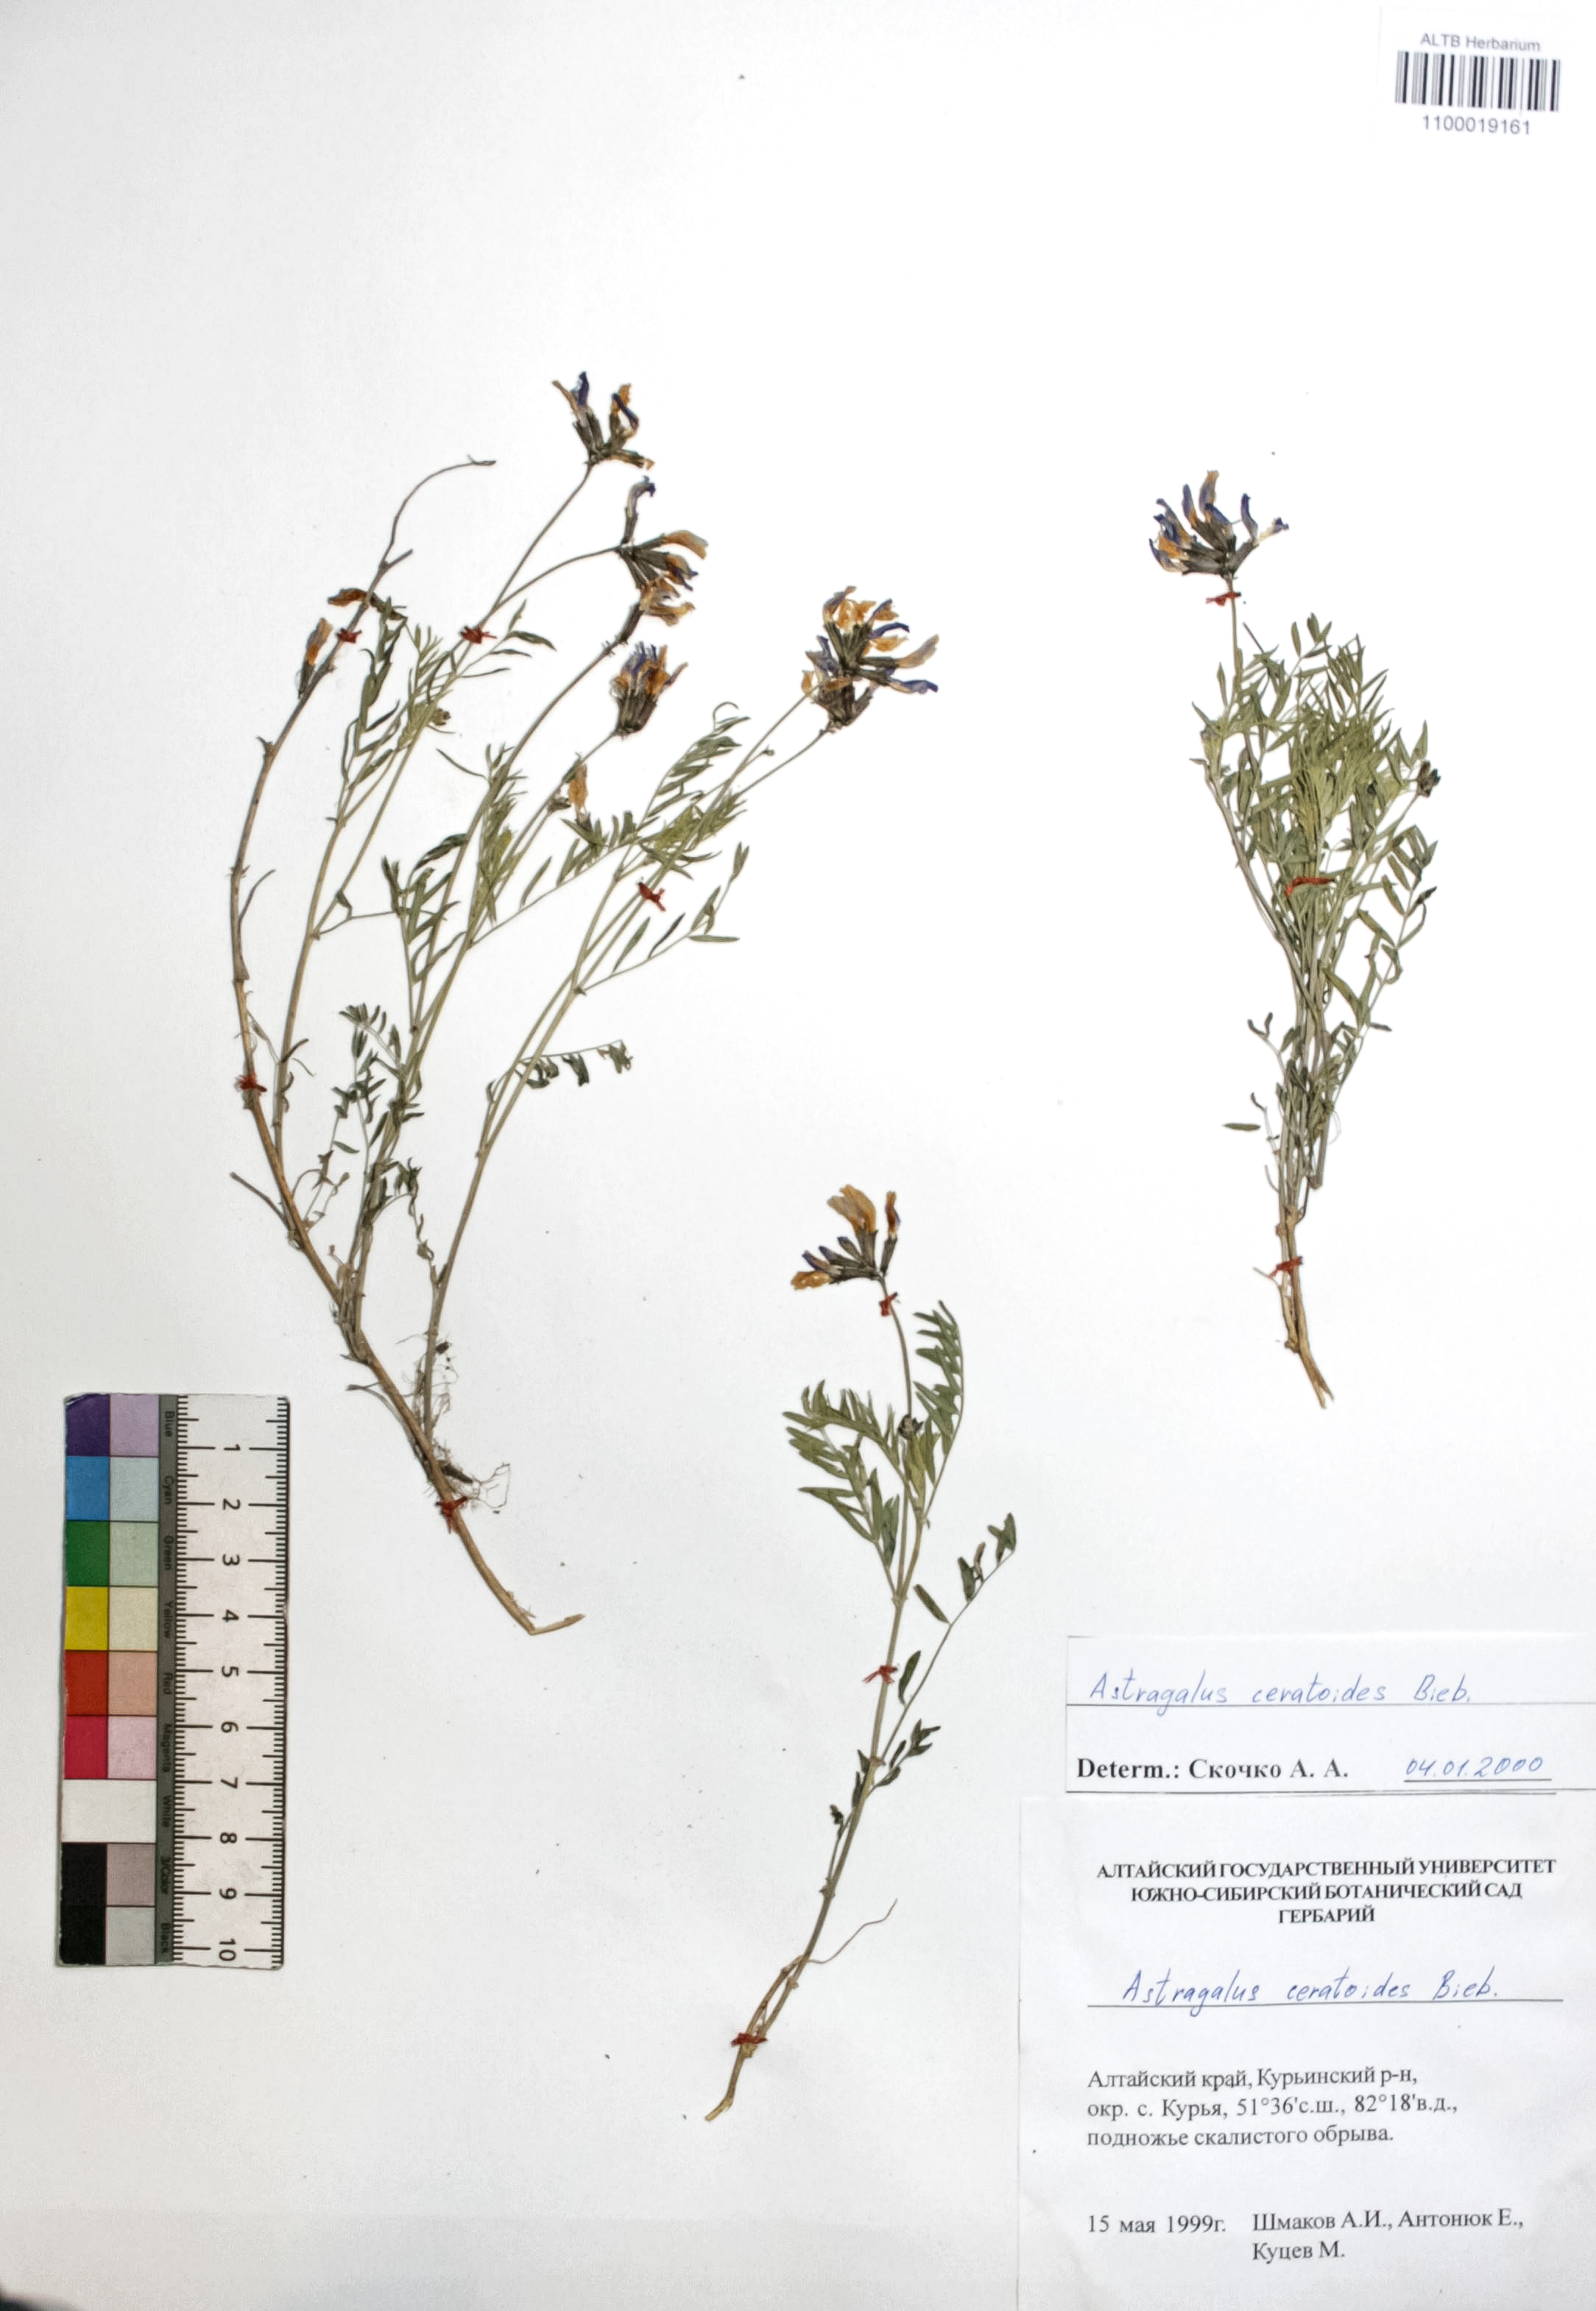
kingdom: Plantae
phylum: Tracheophyta
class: Magnoliopsida
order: Fabales
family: Fabaceae
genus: Astragalus
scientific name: Astragalus ceratoides
